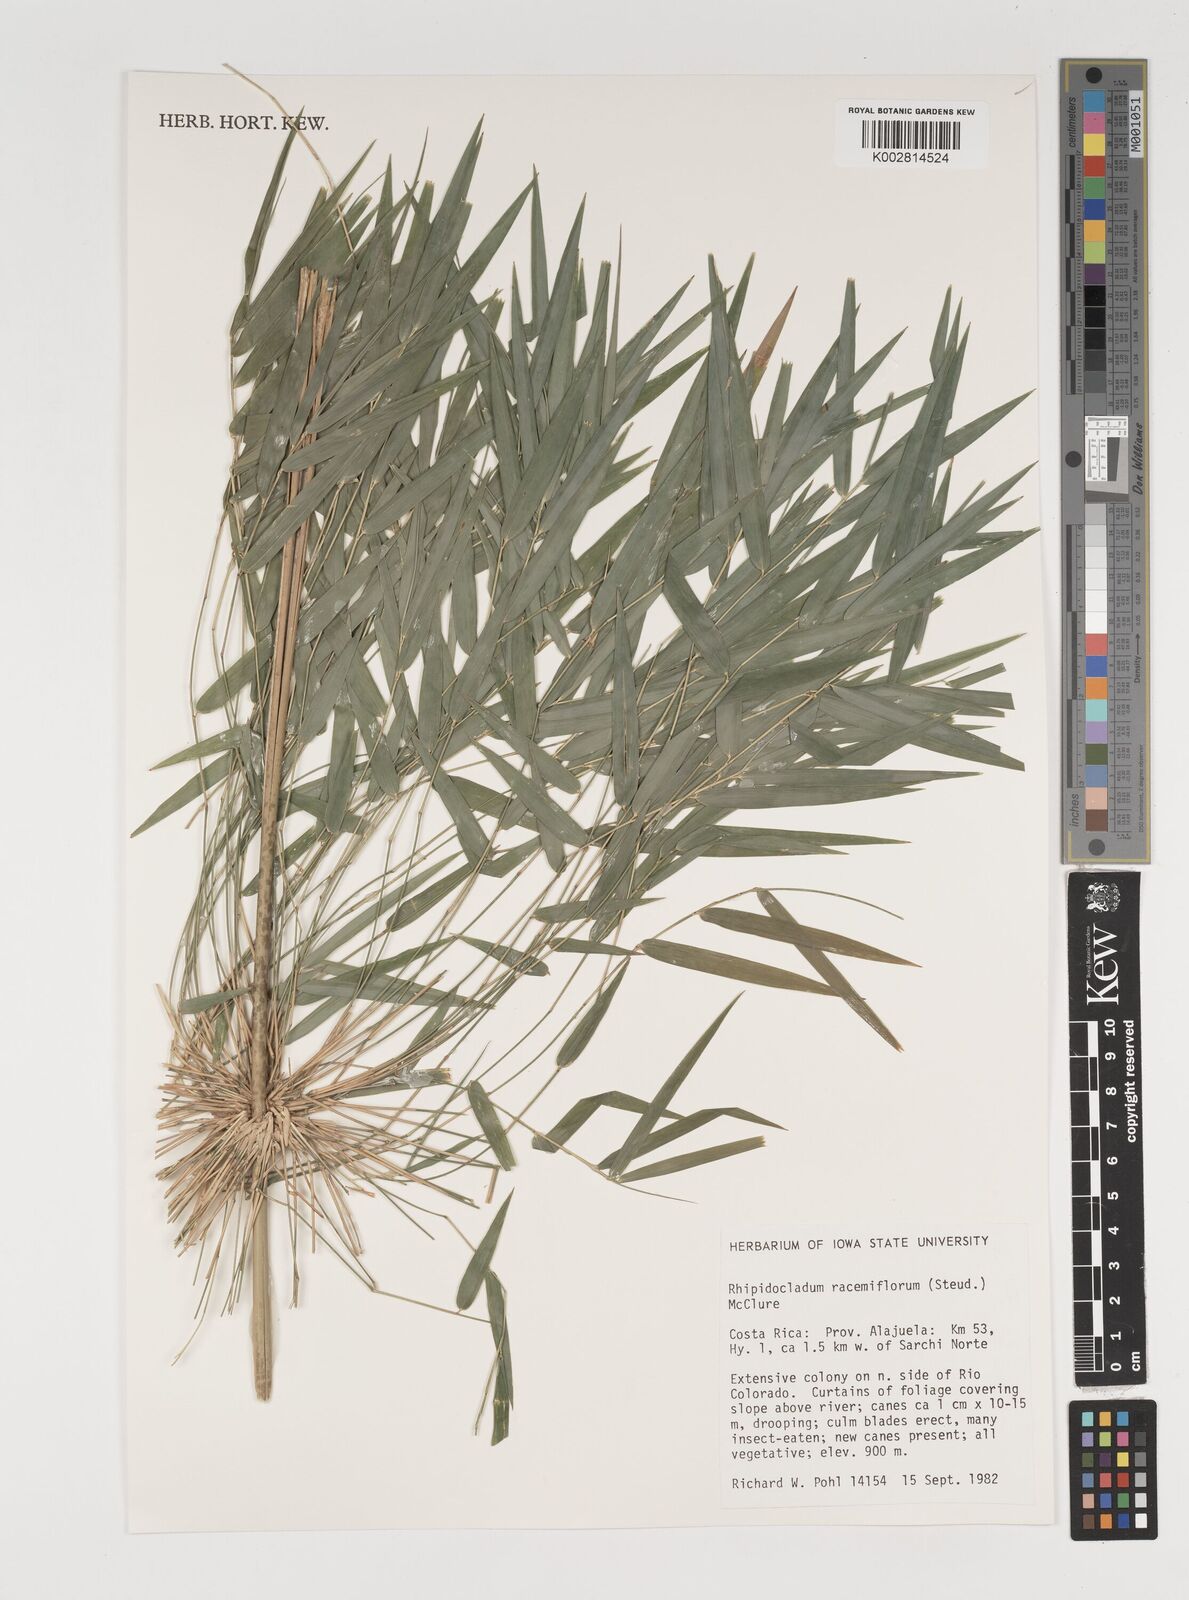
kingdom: Plantae
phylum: Tracheophyta
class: Liliopsida
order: Poales
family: Poaceae
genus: Rhipidocladum
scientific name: Rhipidocladum racemiflorum
